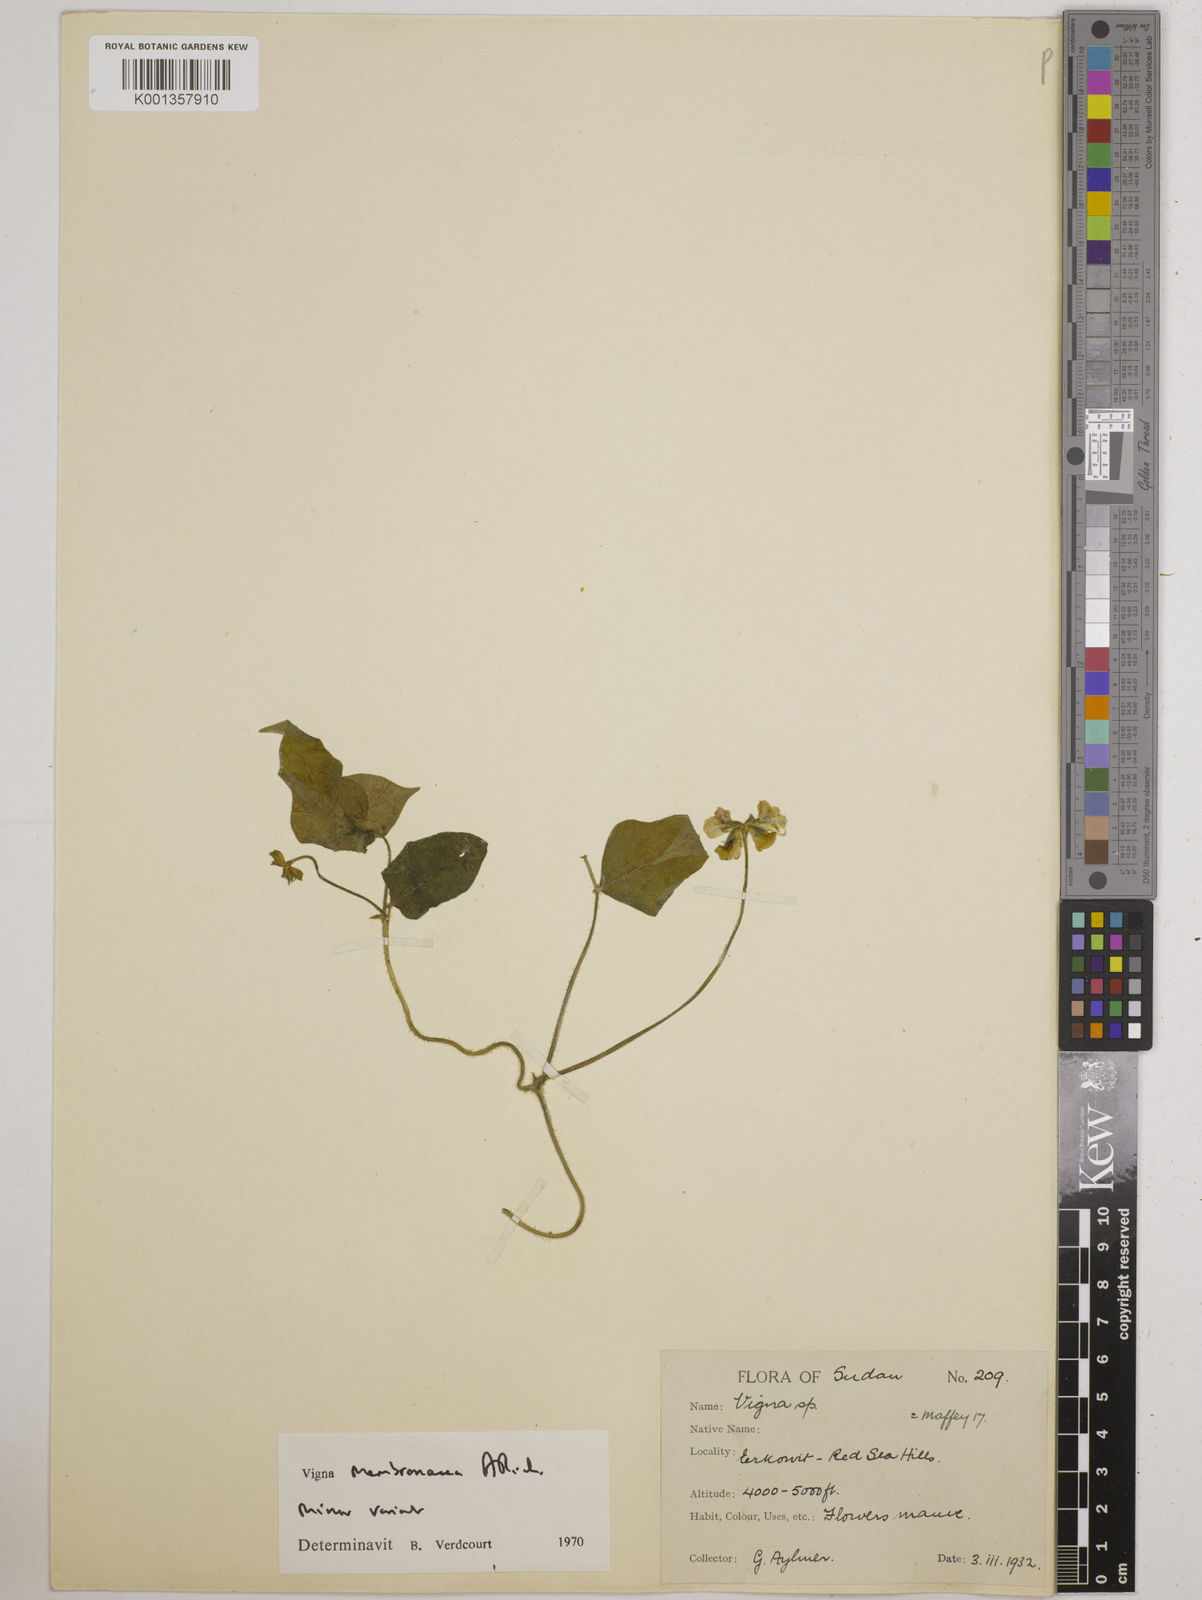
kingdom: Plantae
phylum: Tracheophyta
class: Magnoliopsida
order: Fabales
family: Fabaceae
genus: Vigna
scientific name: Vigna
